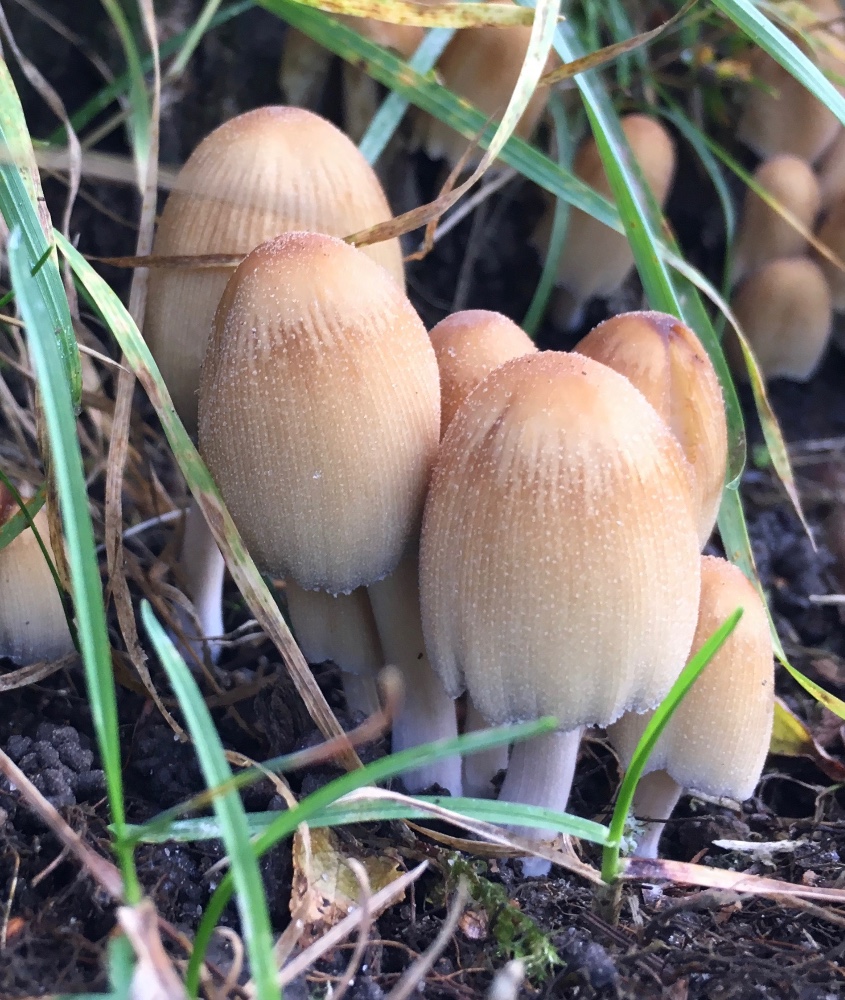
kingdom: Fungi
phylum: Basidiomycota
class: Agaricomycetes
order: Agaricales
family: Psathyrellaceae
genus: Coprinellus
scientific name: Coprinellus micaceus
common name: glimmer-blækhat
